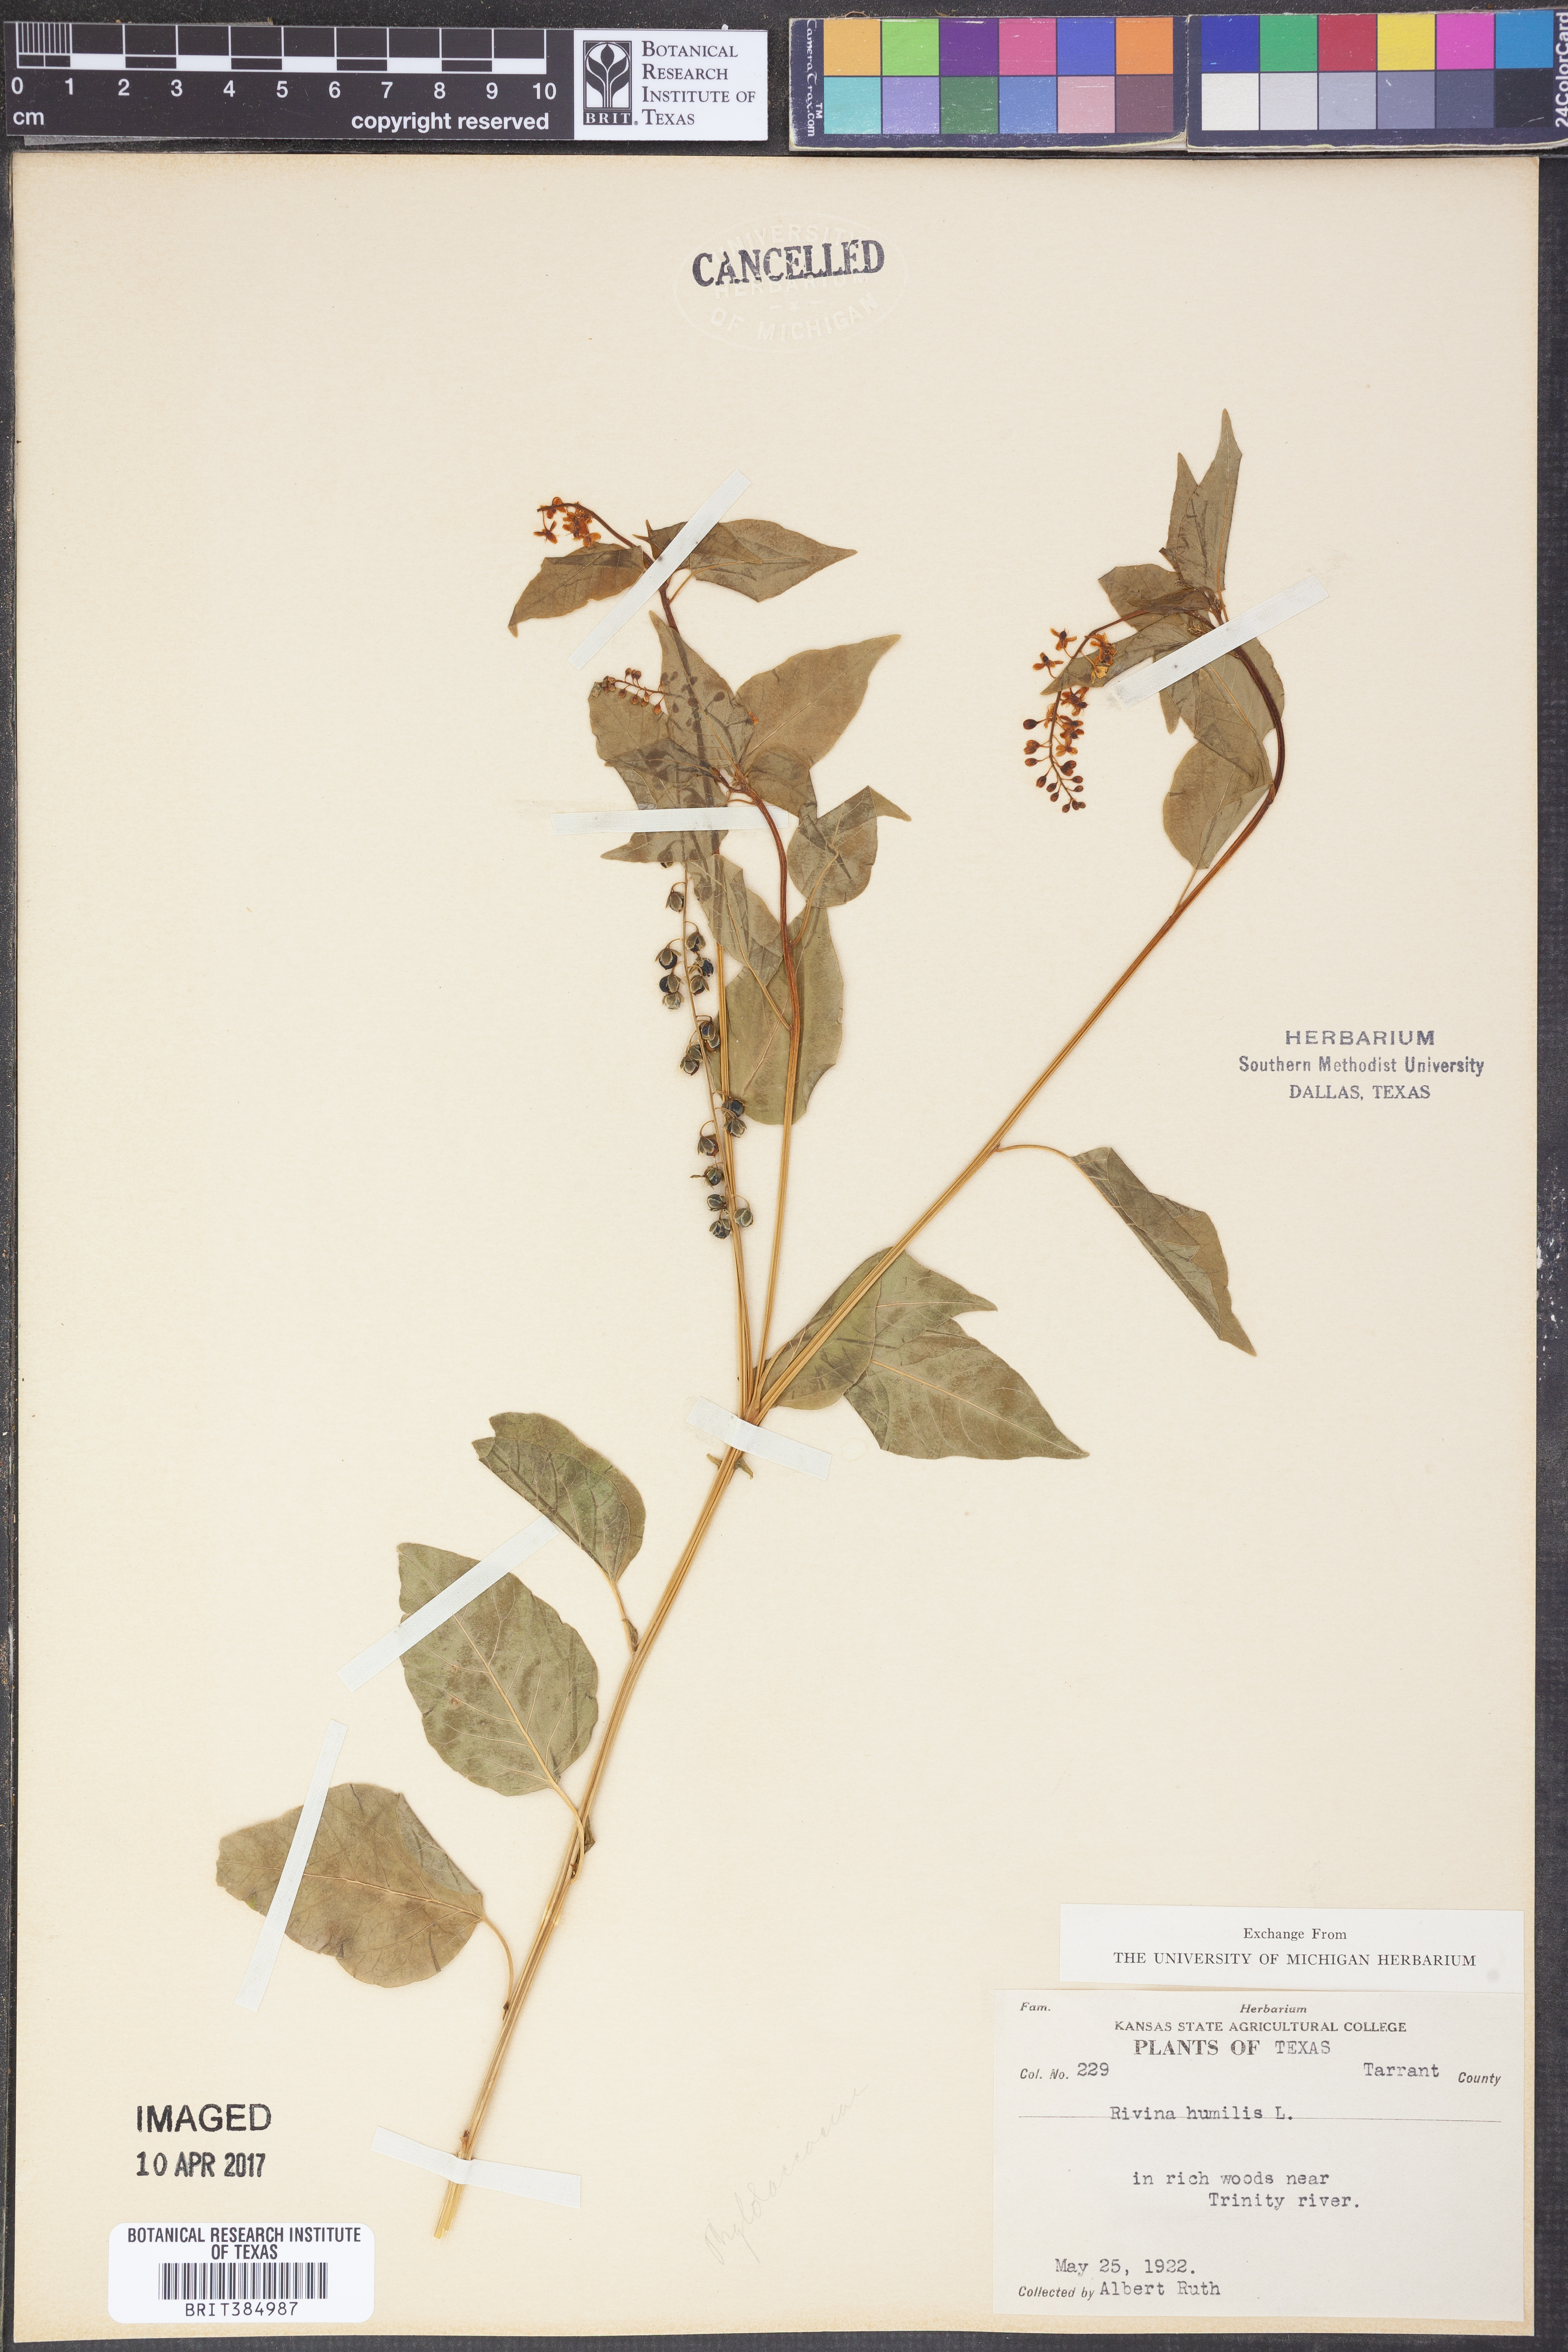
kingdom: Plantae
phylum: Tracheophyta
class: Magnoliopsida
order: Caryophyllales
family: Phytolaccaceae
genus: Rivina
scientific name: Rivina humilis
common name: Rougeplant
